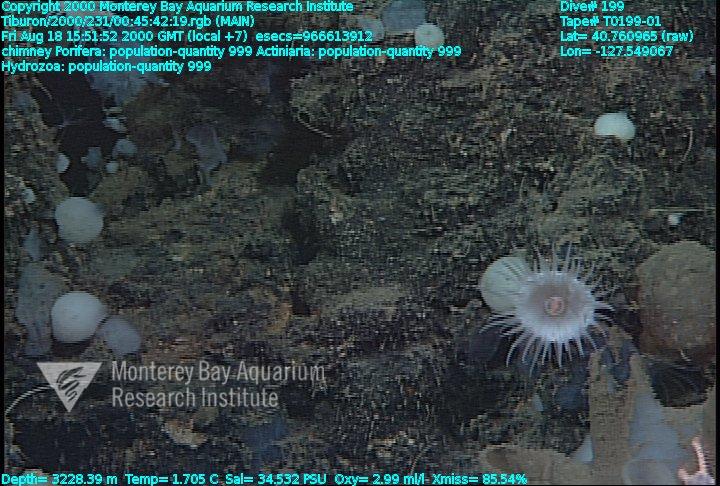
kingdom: Animalia
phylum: Porifera
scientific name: Porifera
